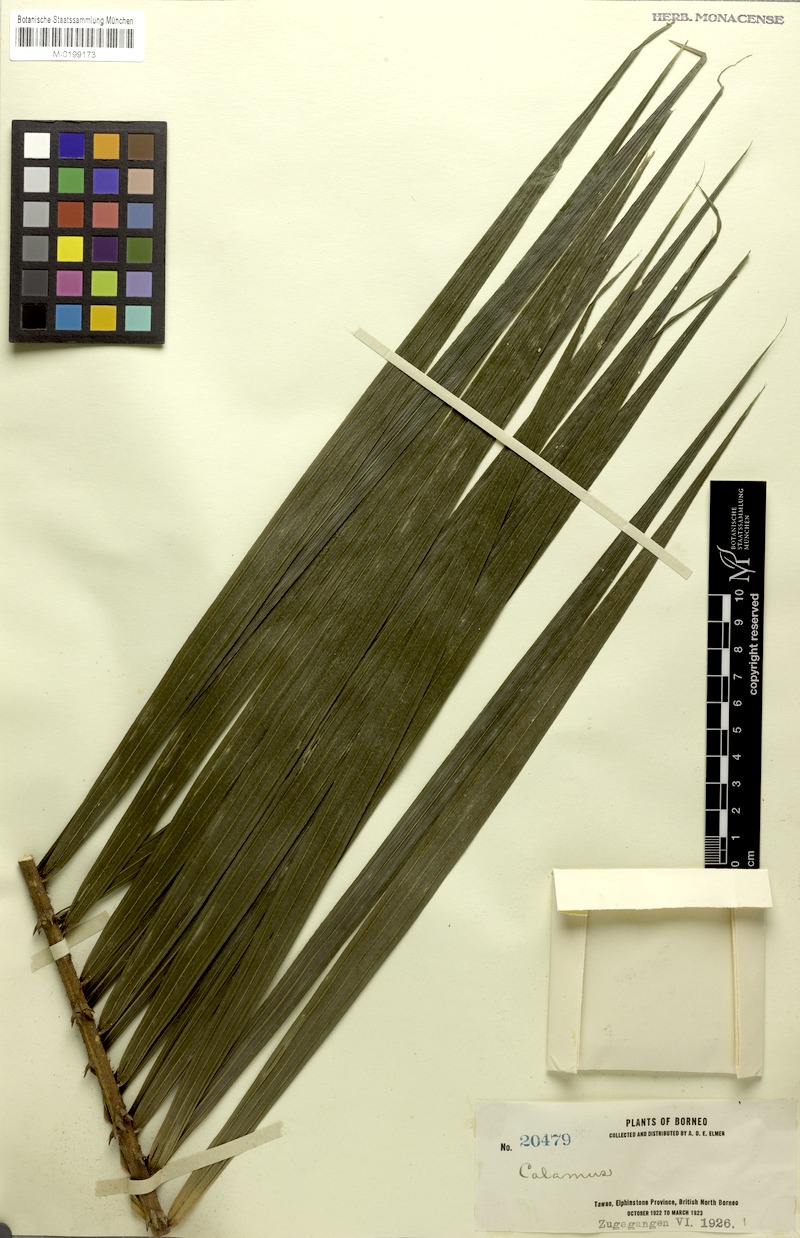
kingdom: Plantae
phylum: Tracheophyta
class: Liliopsida
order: Arecales
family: Arecaceae
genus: Calamus
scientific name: Calamus paspalanthus
